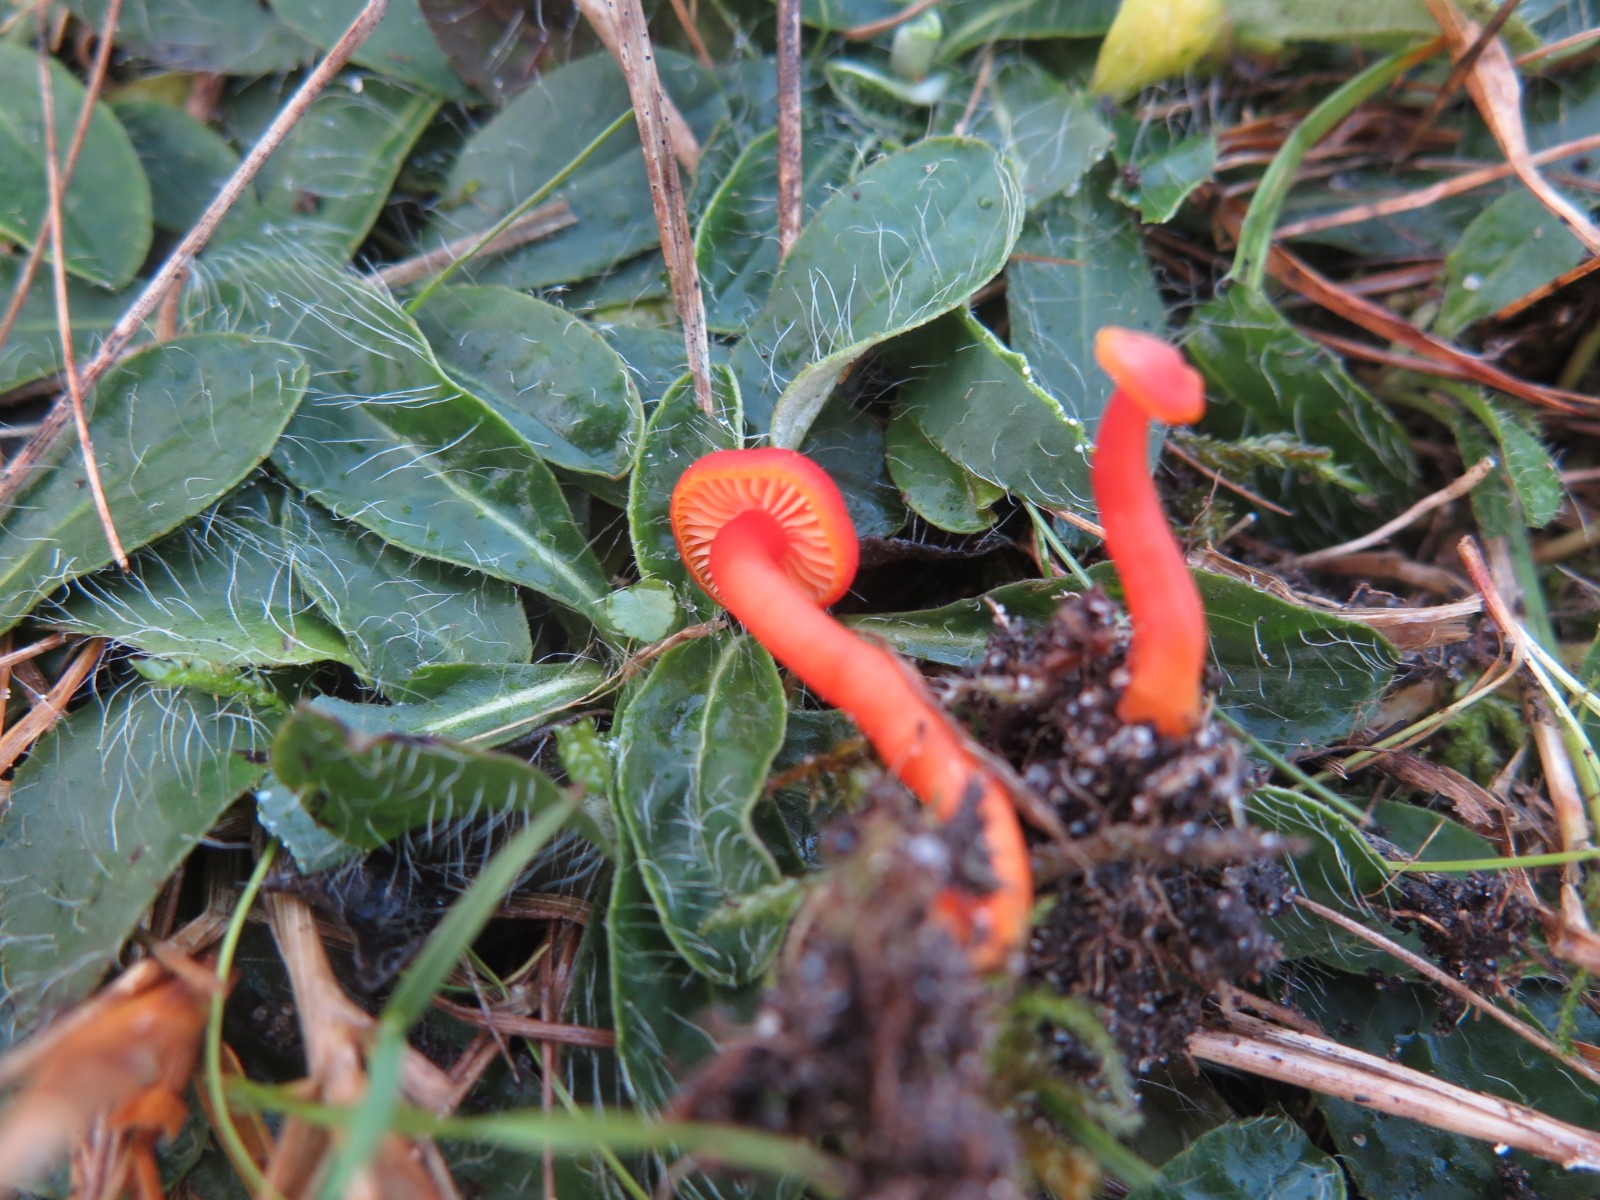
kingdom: Fungi
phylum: Basidiomycota
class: Agaricomycetes
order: Agaricales
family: Hygrophoraceae
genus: Hygrocybe
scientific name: Hygrocybe miniata
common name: mønje-vokshat
